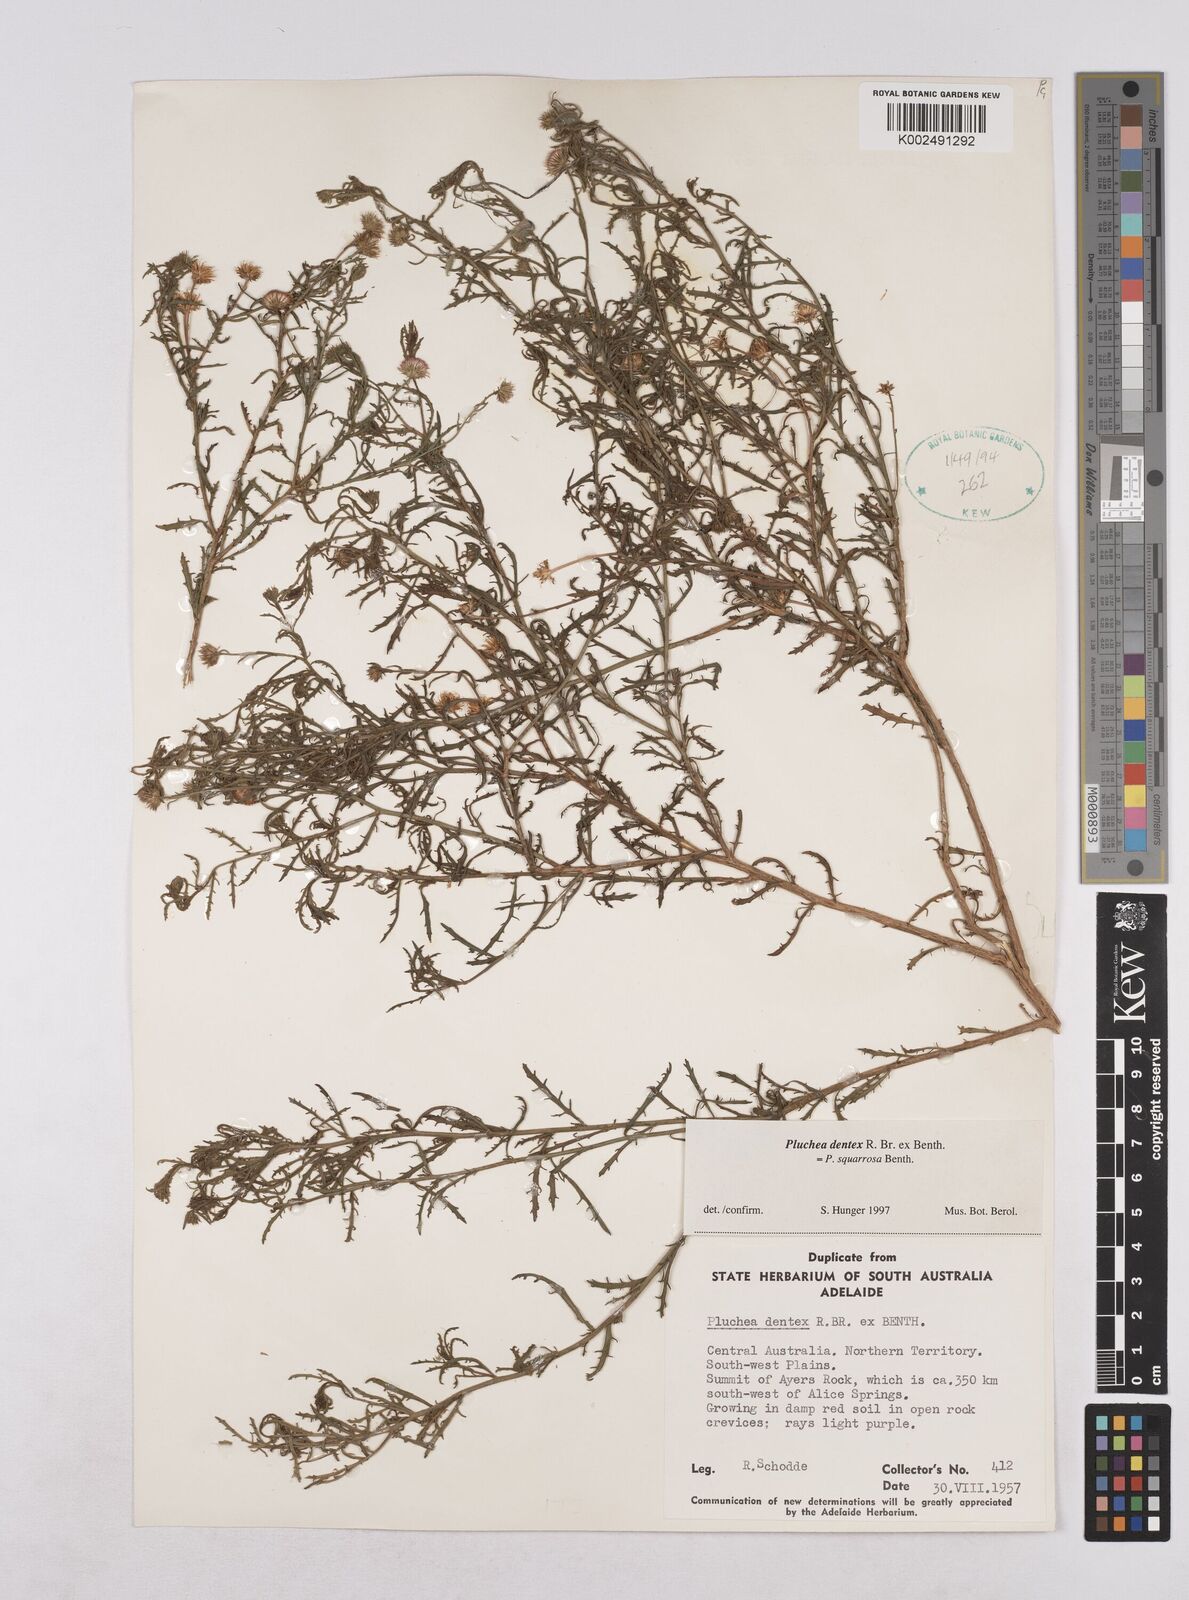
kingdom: Plantae
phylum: Tracheophyta
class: Magnoliopsida
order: Asterales
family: Asteraceae
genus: Pluchea
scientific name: Pluchea dentex
